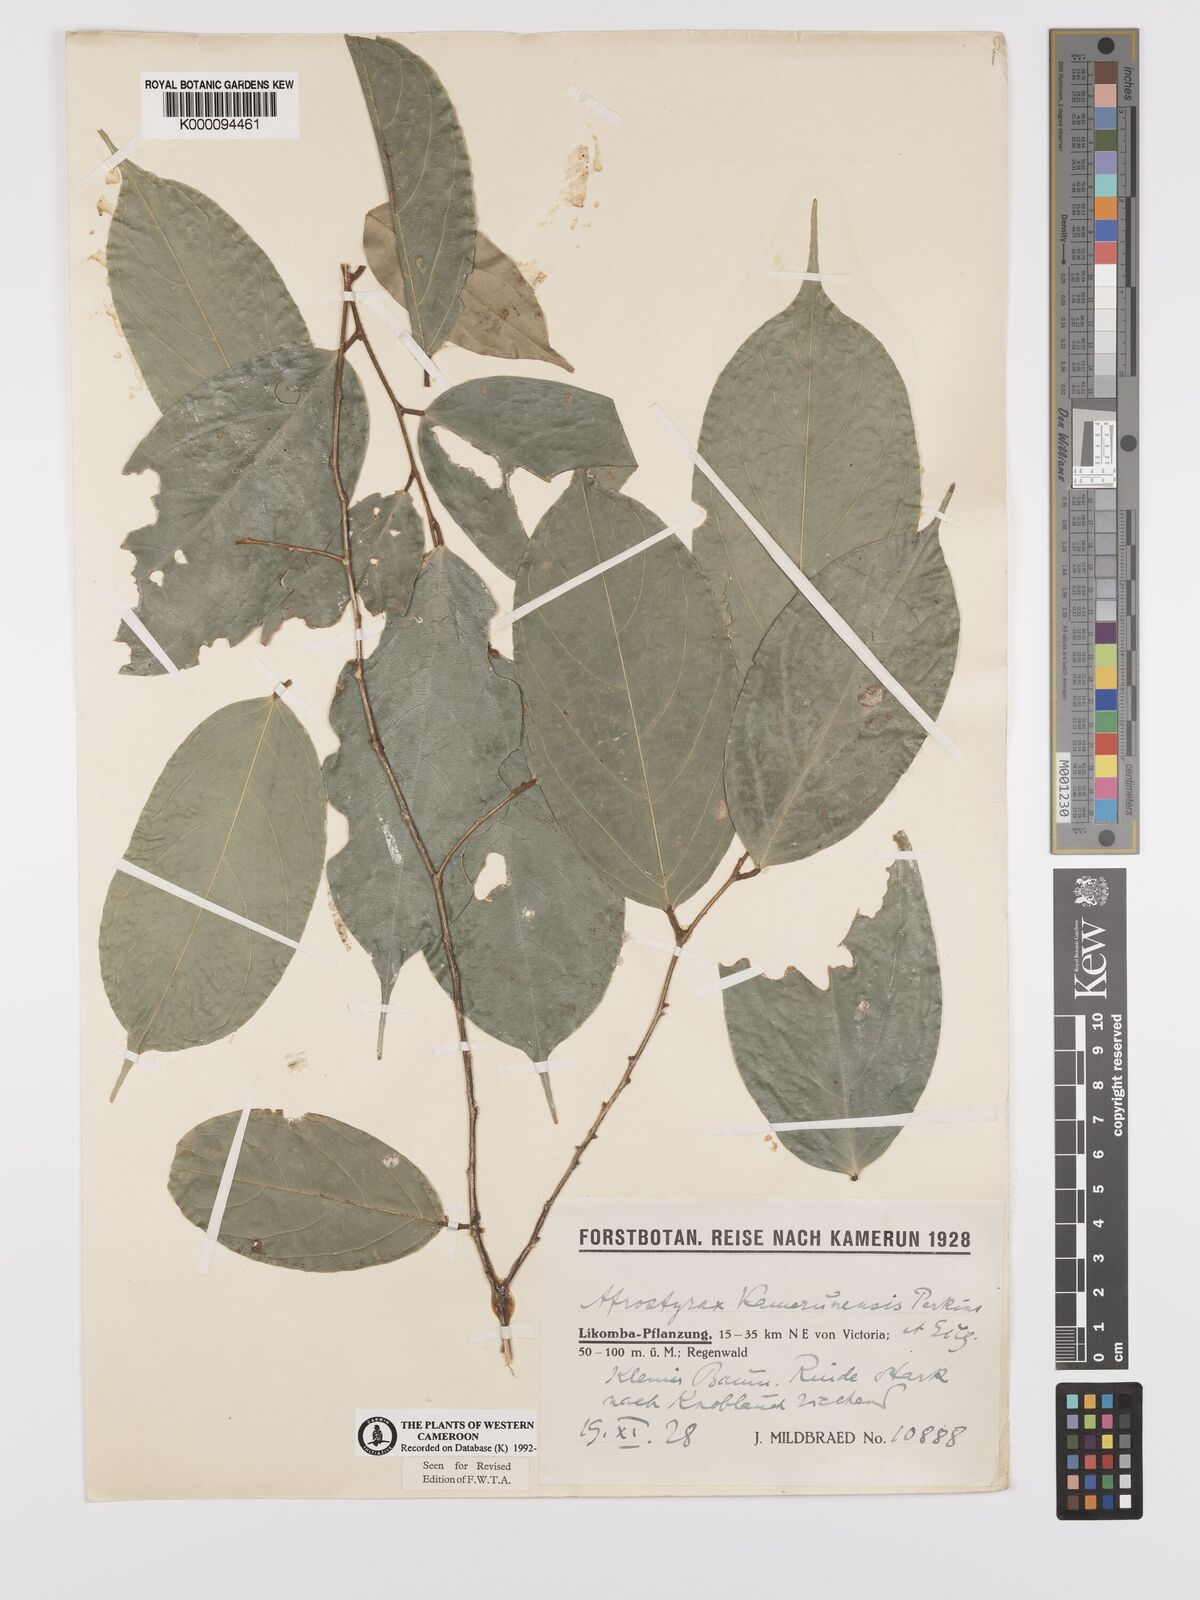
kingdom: Plantae
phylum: Tracheophyta
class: Magnoliopsida
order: Oxalidales
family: Huaceae
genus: Afrostyrax
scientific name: Afrostyrax kamerunensis
